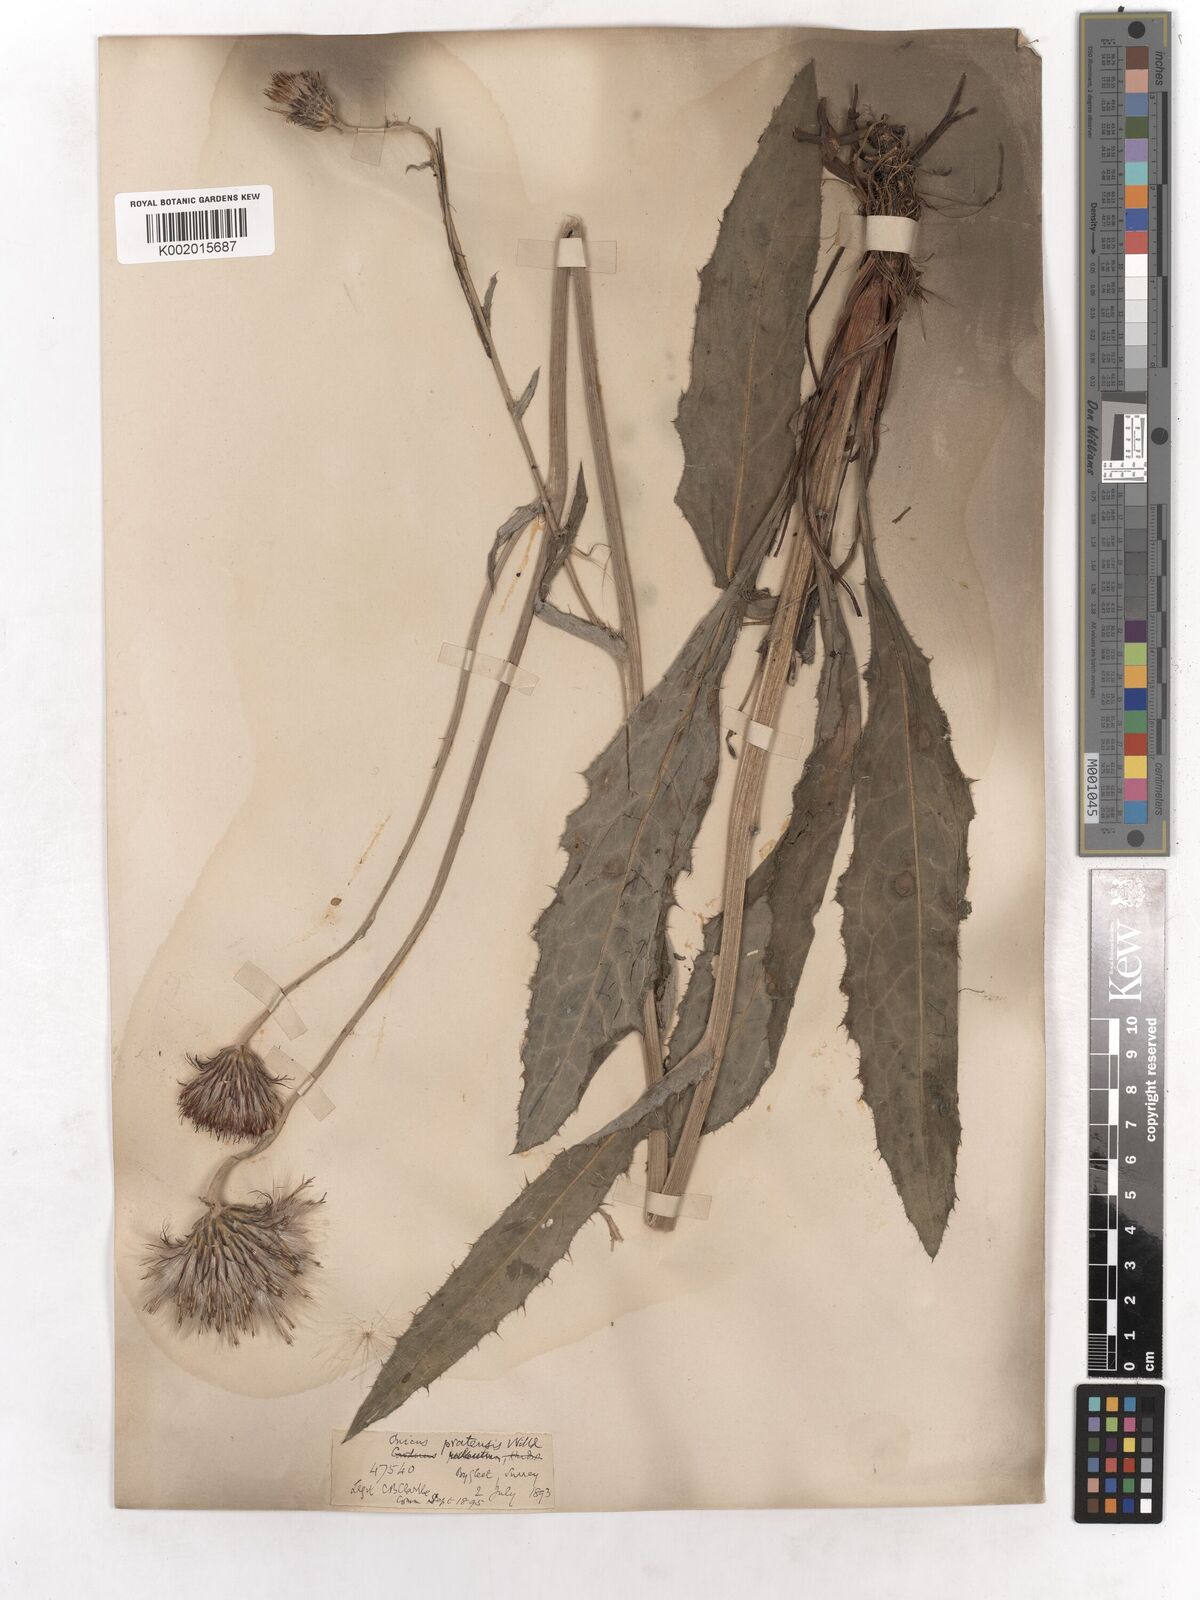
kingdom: Plantae
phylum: Tracheophyta
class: Magnoliopsida
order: Asterales
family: Asteraceae
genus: Cirsium
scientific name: Cirsium dissectum
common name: Meadow thistle
